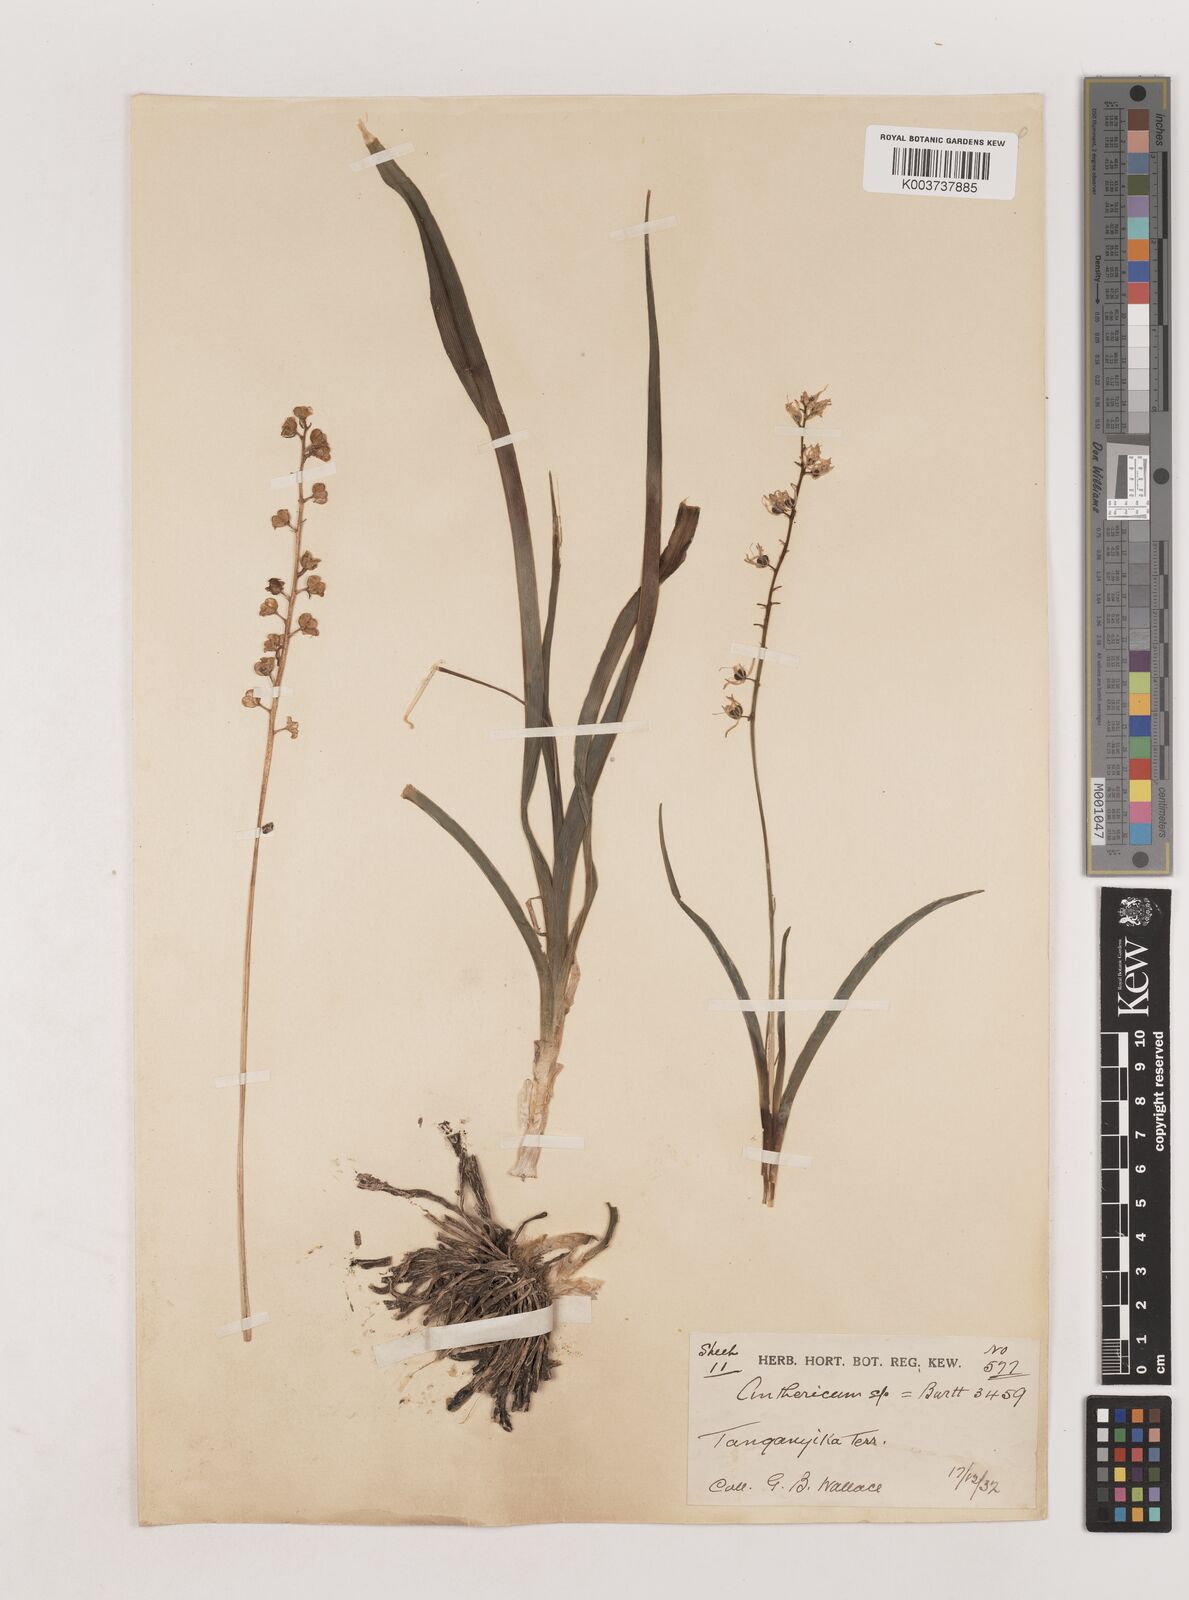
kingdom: Plantae
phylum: Tracheophyta
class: Liliopsida
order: Asparagales
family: Asparagaceae
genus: Chlorophytum
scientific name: Chlorophytum collinum
